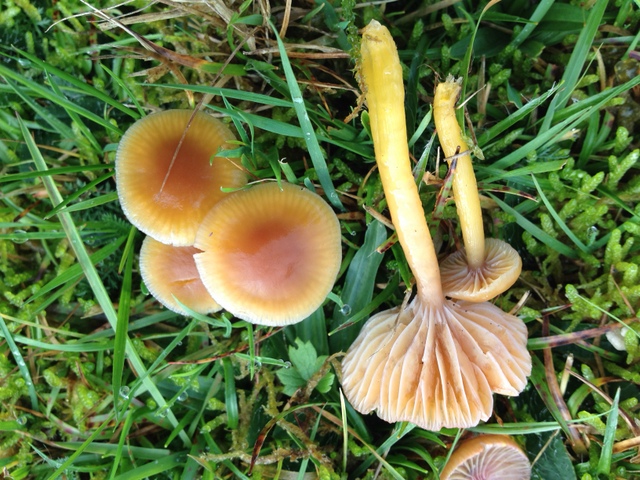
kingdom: Fungi
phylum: Basidiomycota
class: Agaricomycetes
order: Agaricales
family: Hygrophoraceae
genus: Gliophorus
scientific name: Gliophorus laetus
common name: brusk-vokshat
